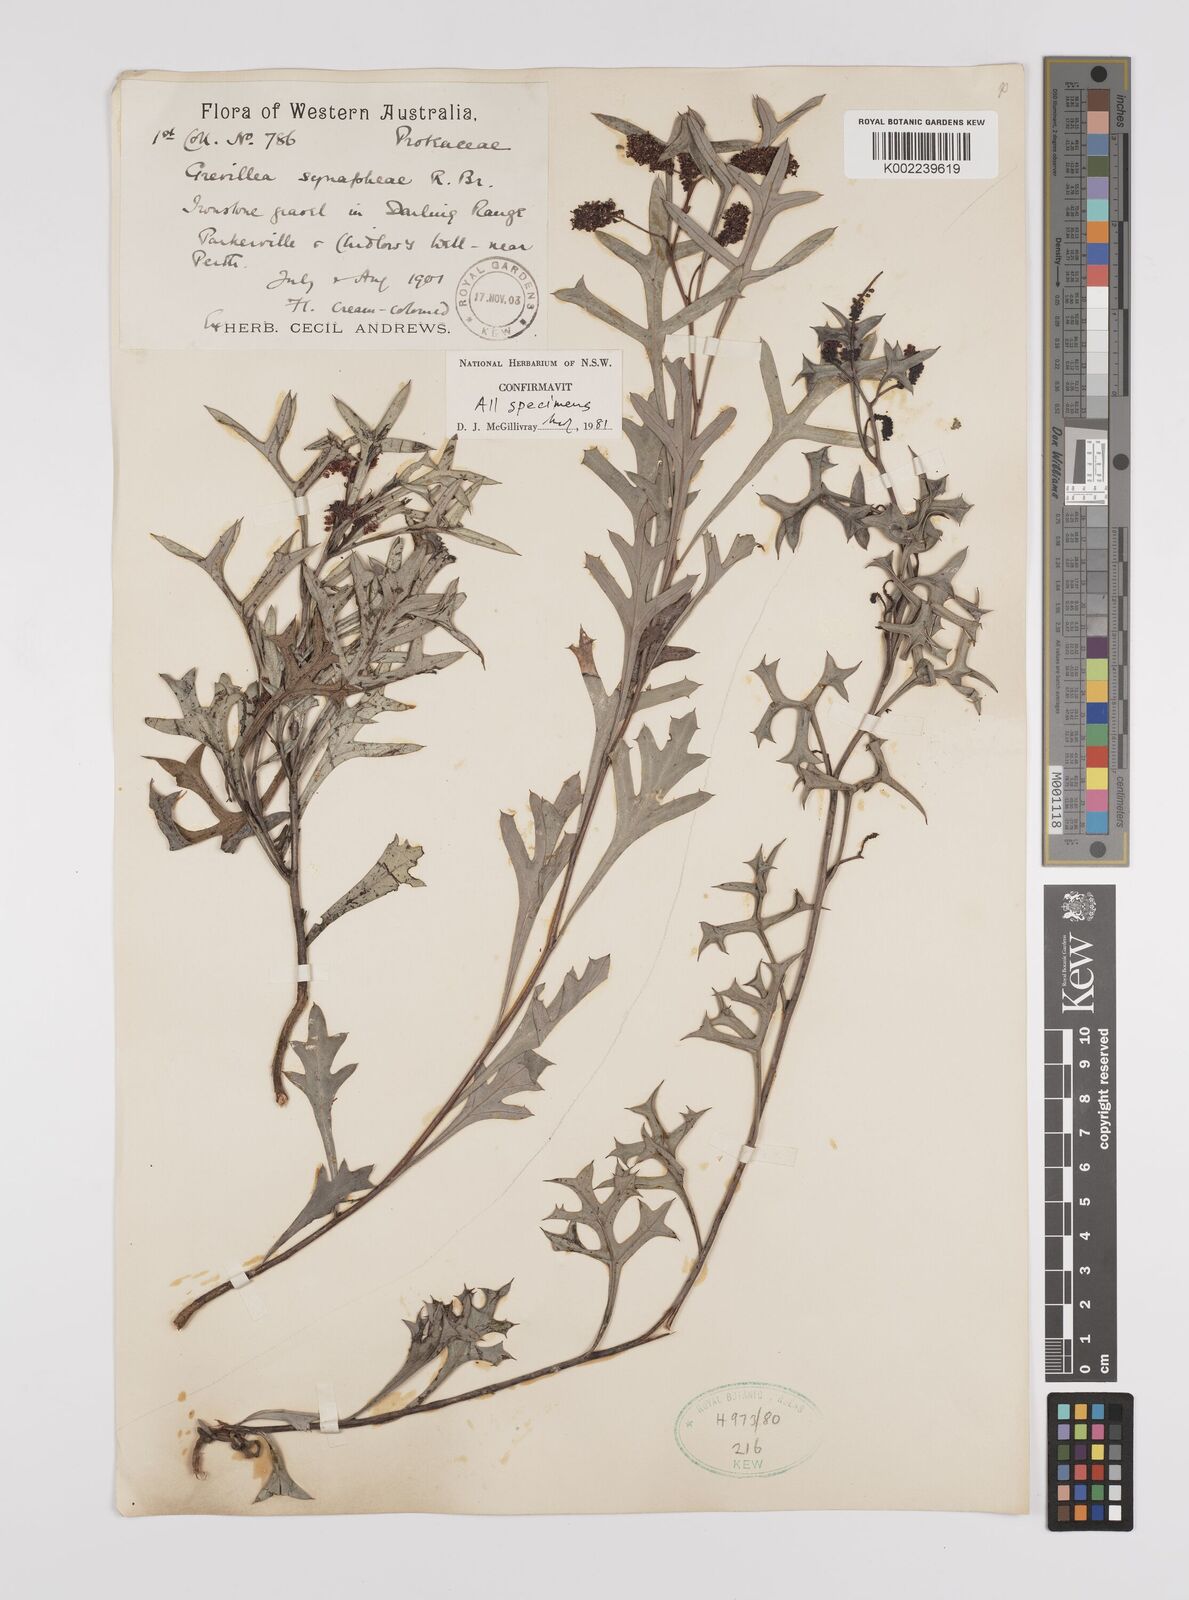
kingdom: Plantae
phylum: Tracheophyta
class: Magnoliopsida
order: Proteales
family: Proteaceae
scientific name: Proteaceae
